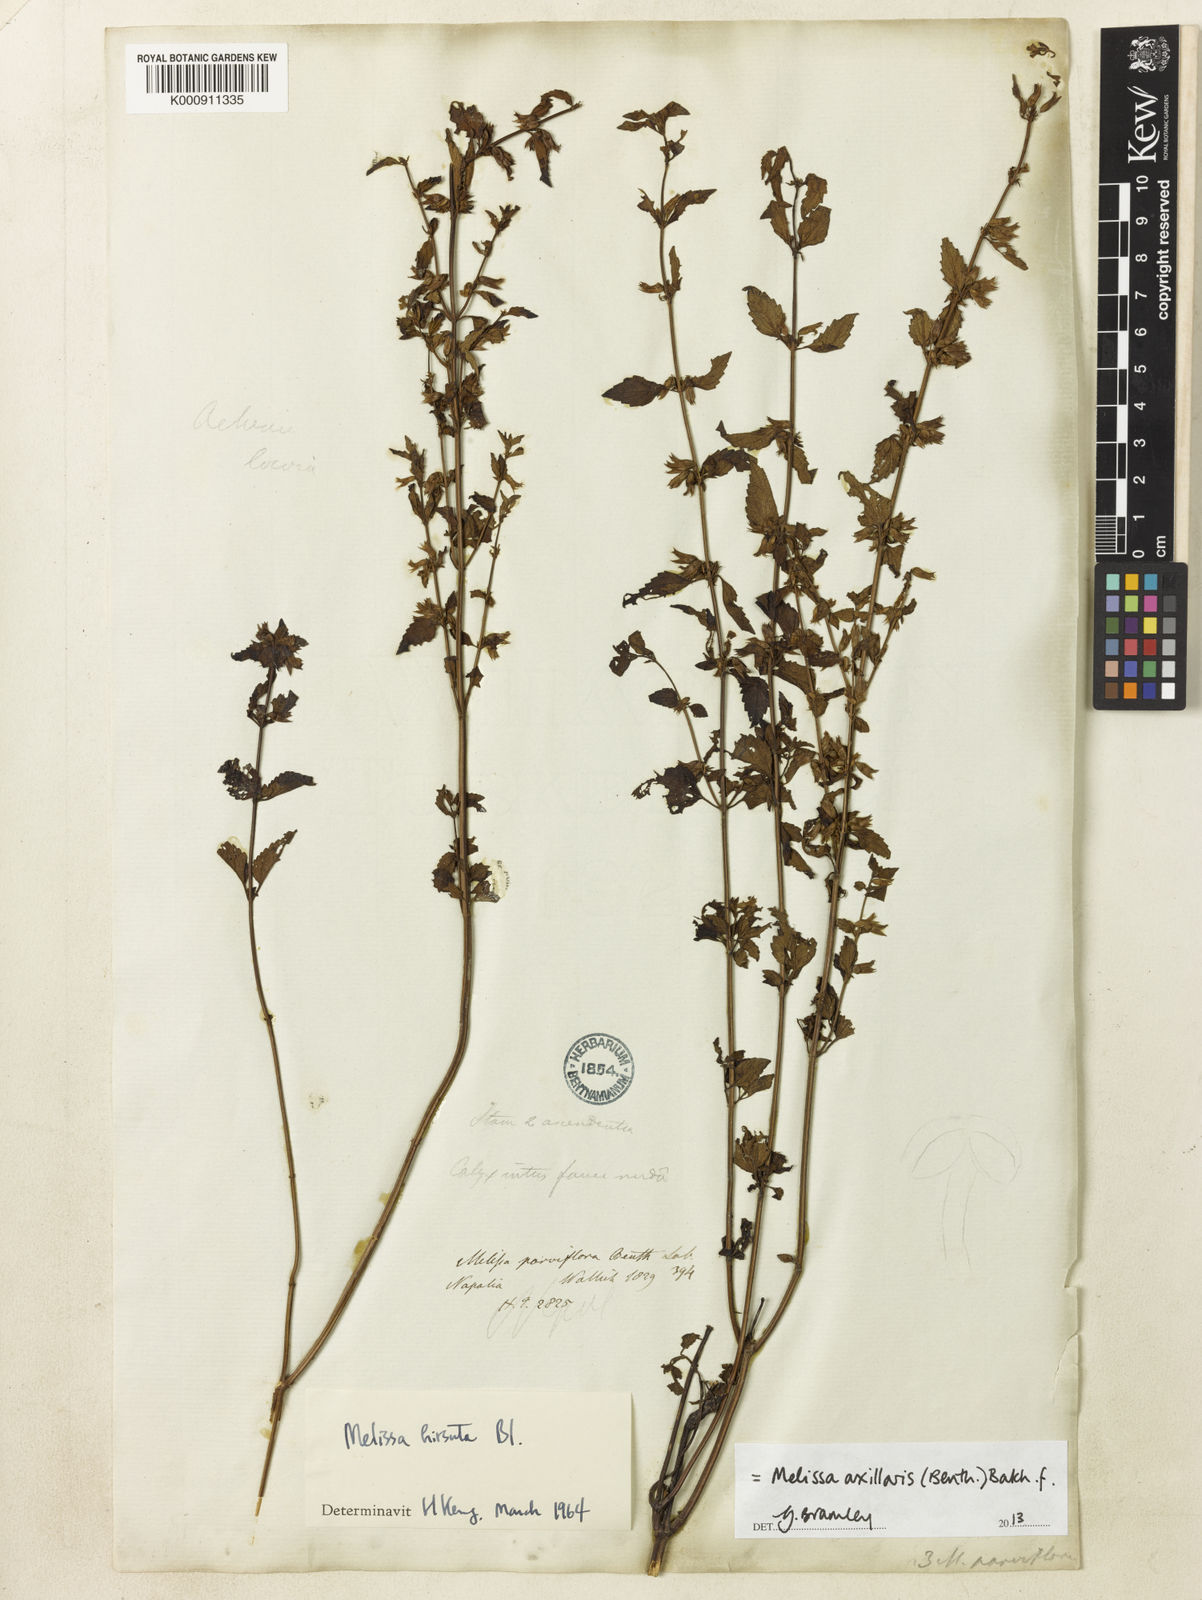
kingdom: Plantae
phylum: Tracheophyta
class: Magnoliopsida
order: Lamiales
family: Lamiaceae
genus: Melissa
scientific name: Melissa axillaris
